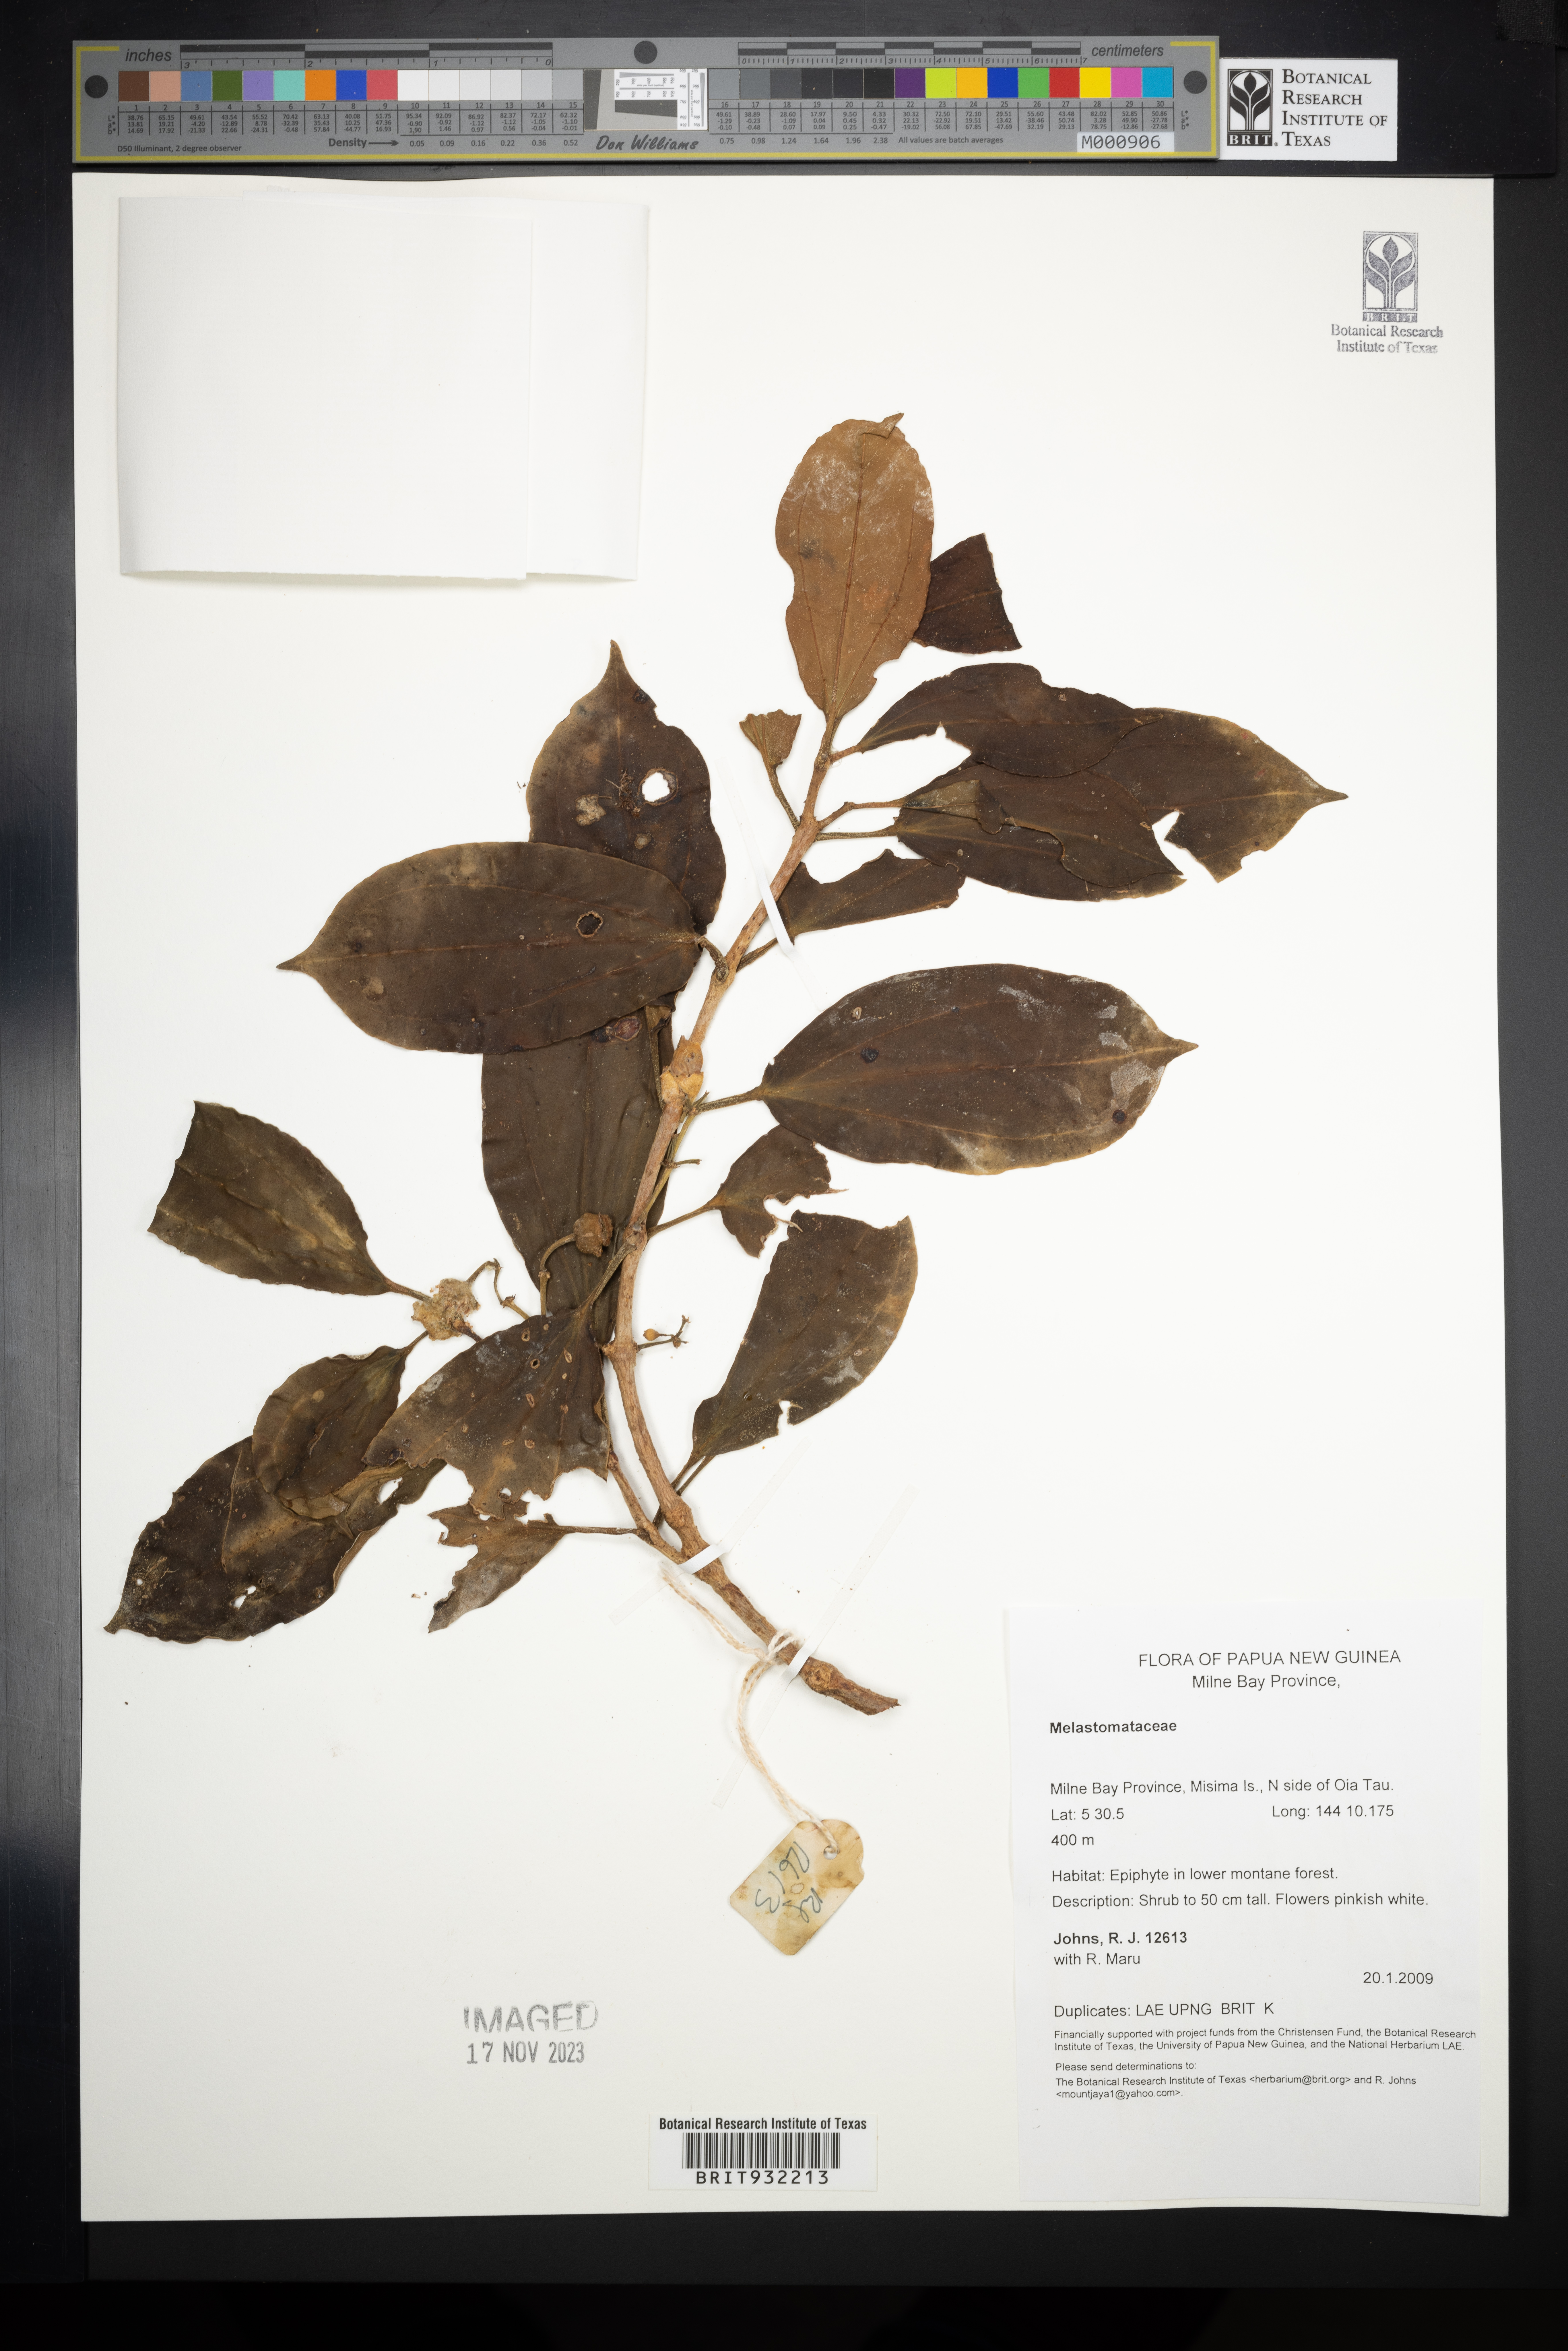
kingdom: Plantae
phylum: Tracheophyta
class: Magnoliopsida
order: Myrtales
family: Melastomataceae
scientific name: Melastomataceae
